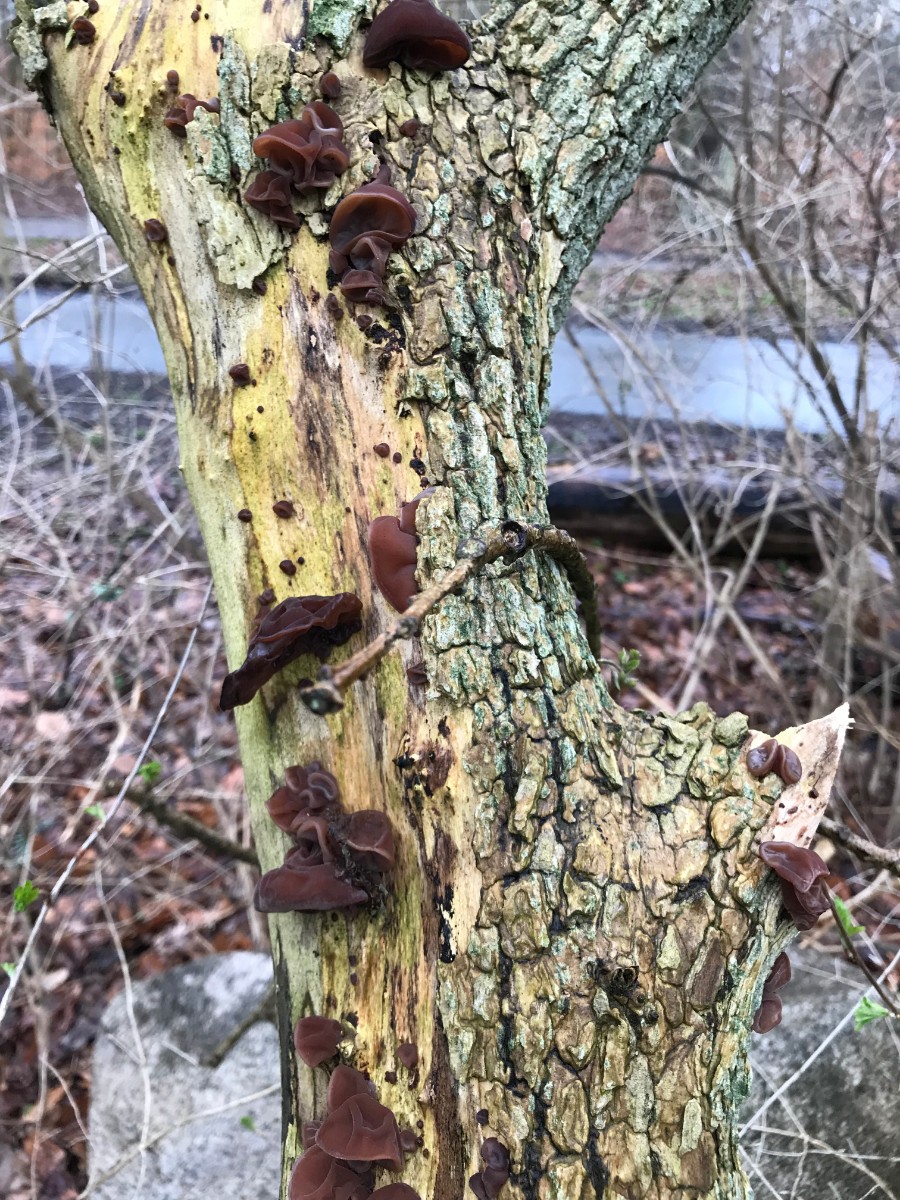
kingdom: Fungi
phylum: Basidiomycota
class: Agaricomycetes
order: Auriculariales
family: Auriculariaceae
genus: Auricularia
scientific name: Auricularia auricula-judae
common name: almindelig judasøre
